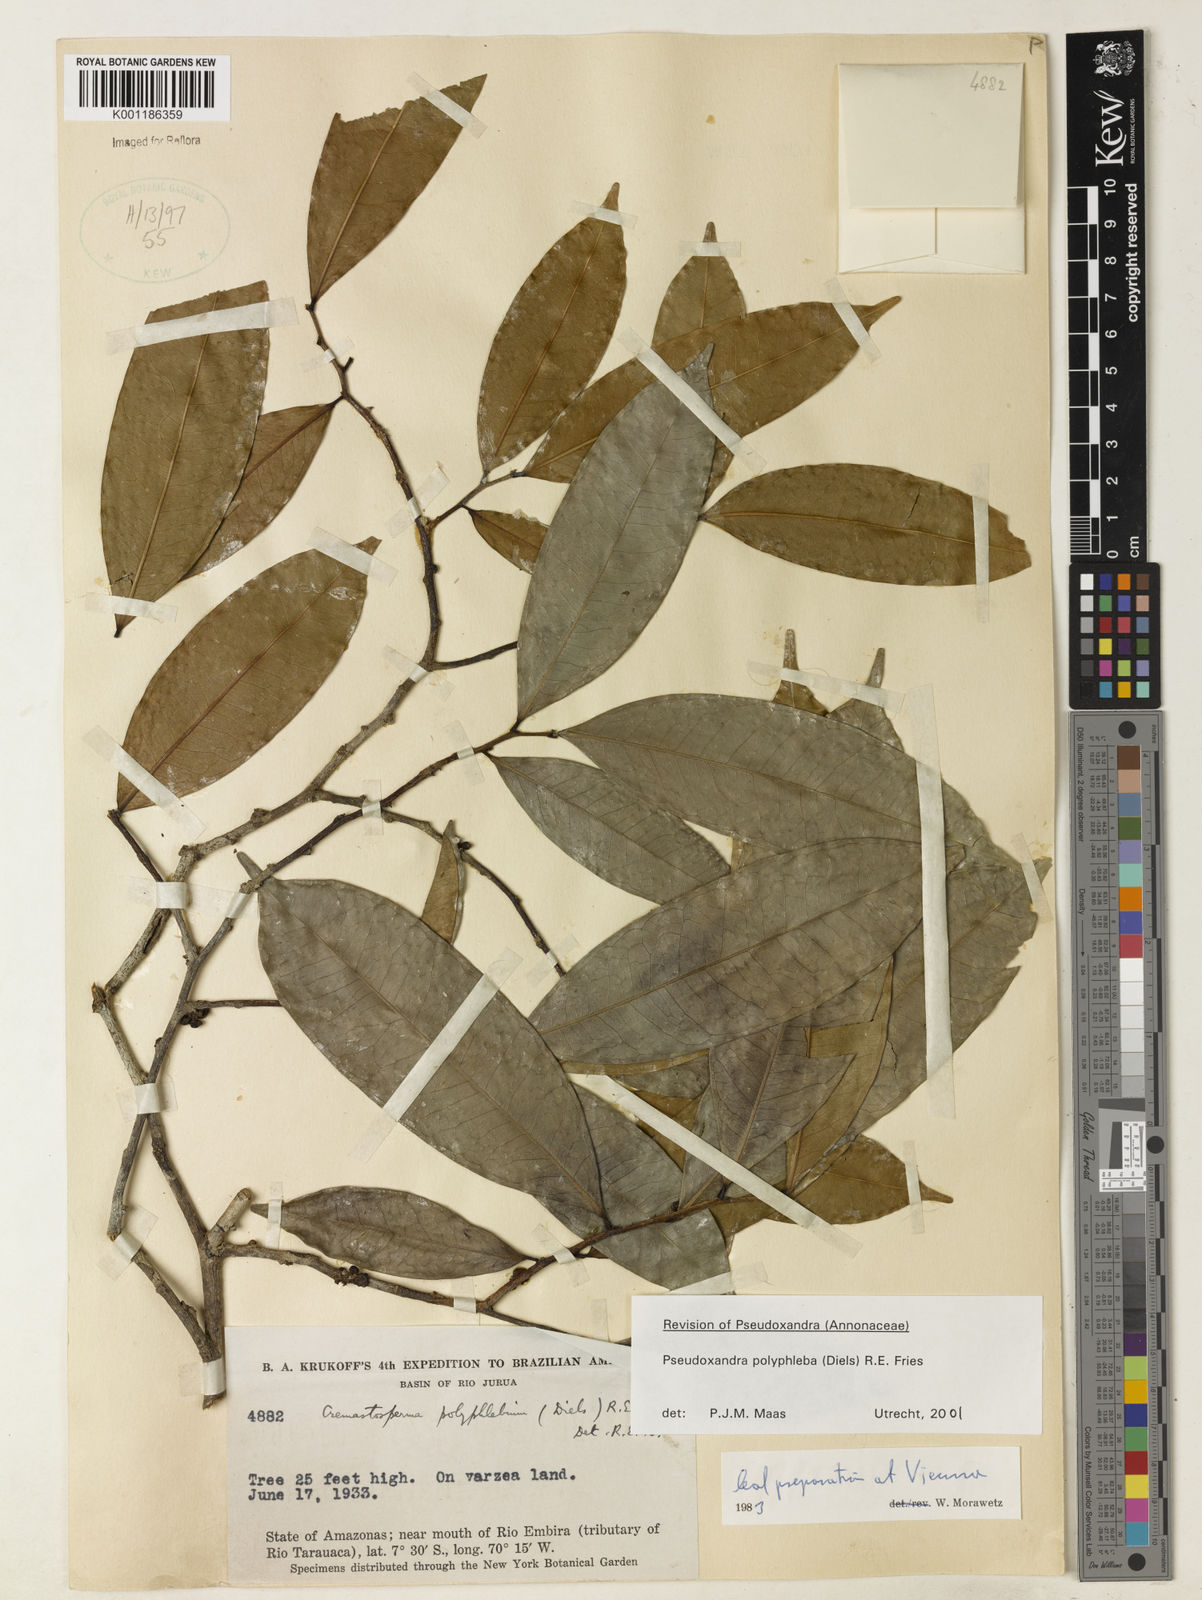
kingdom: Plantae
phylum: Tracheophyta
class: Magnoliopsida
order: Magnoliales
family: Annonaceae
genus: Pseudoxandra
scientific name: Pseudoxandra polyphleba
